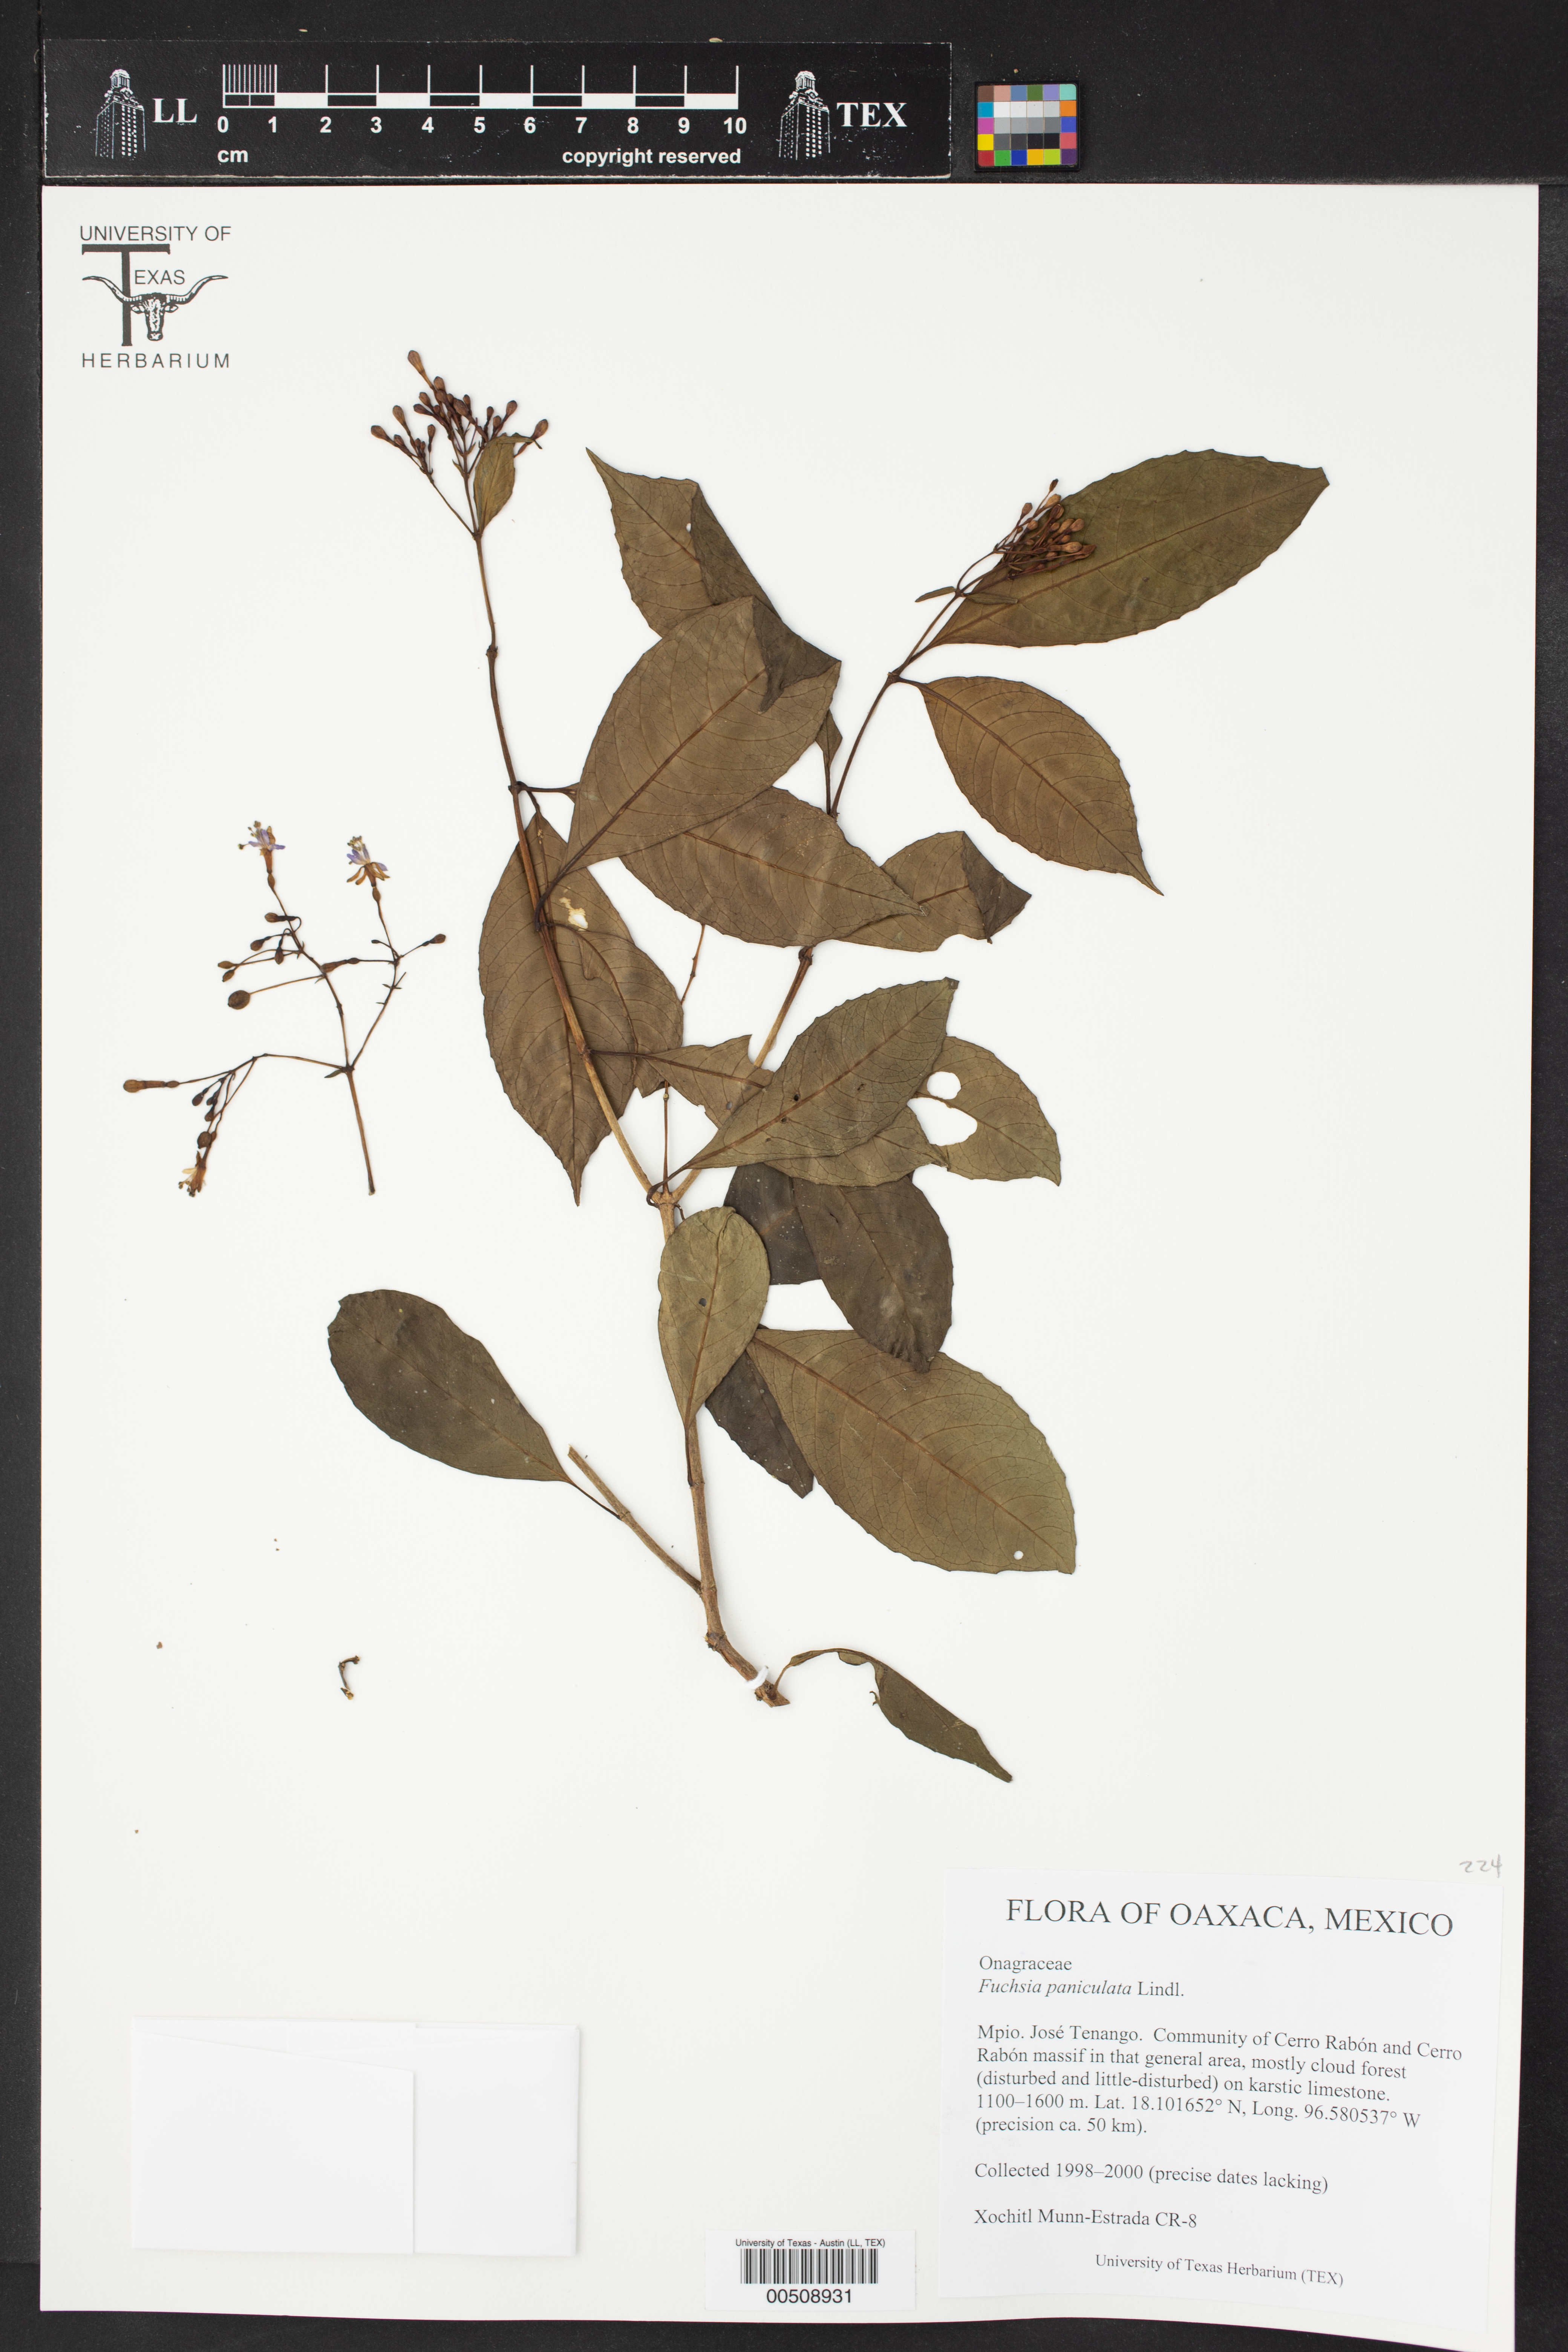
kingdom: Plantae
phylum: Tracheophyta
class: Magnoliopsida
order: Myrtales
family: Onagraceae
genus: Fuchsia
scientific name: Fuchsia paniculata
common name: Shrubby fuchsia
